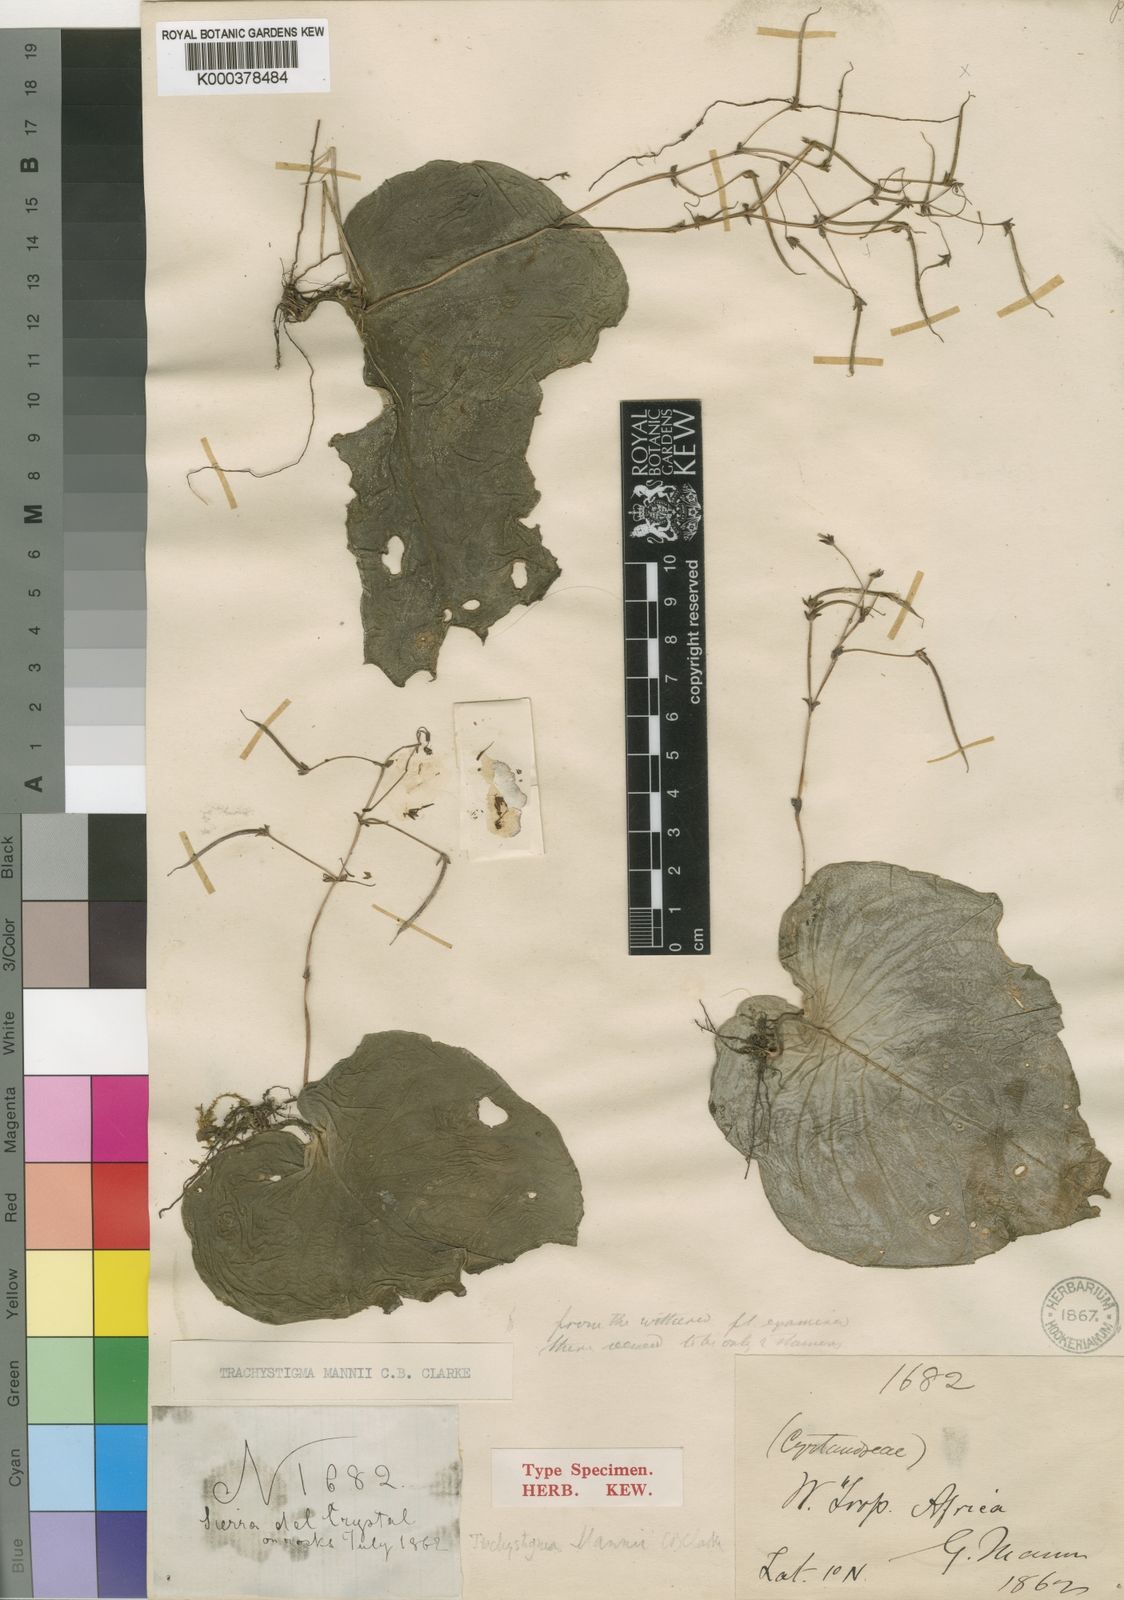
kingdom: Plantae
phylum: Tracheophyta
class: Magnoliopsida
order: Lamiales
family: Gesneriaceae
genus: Streptocarpus
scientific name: Streptocarpus mannii
